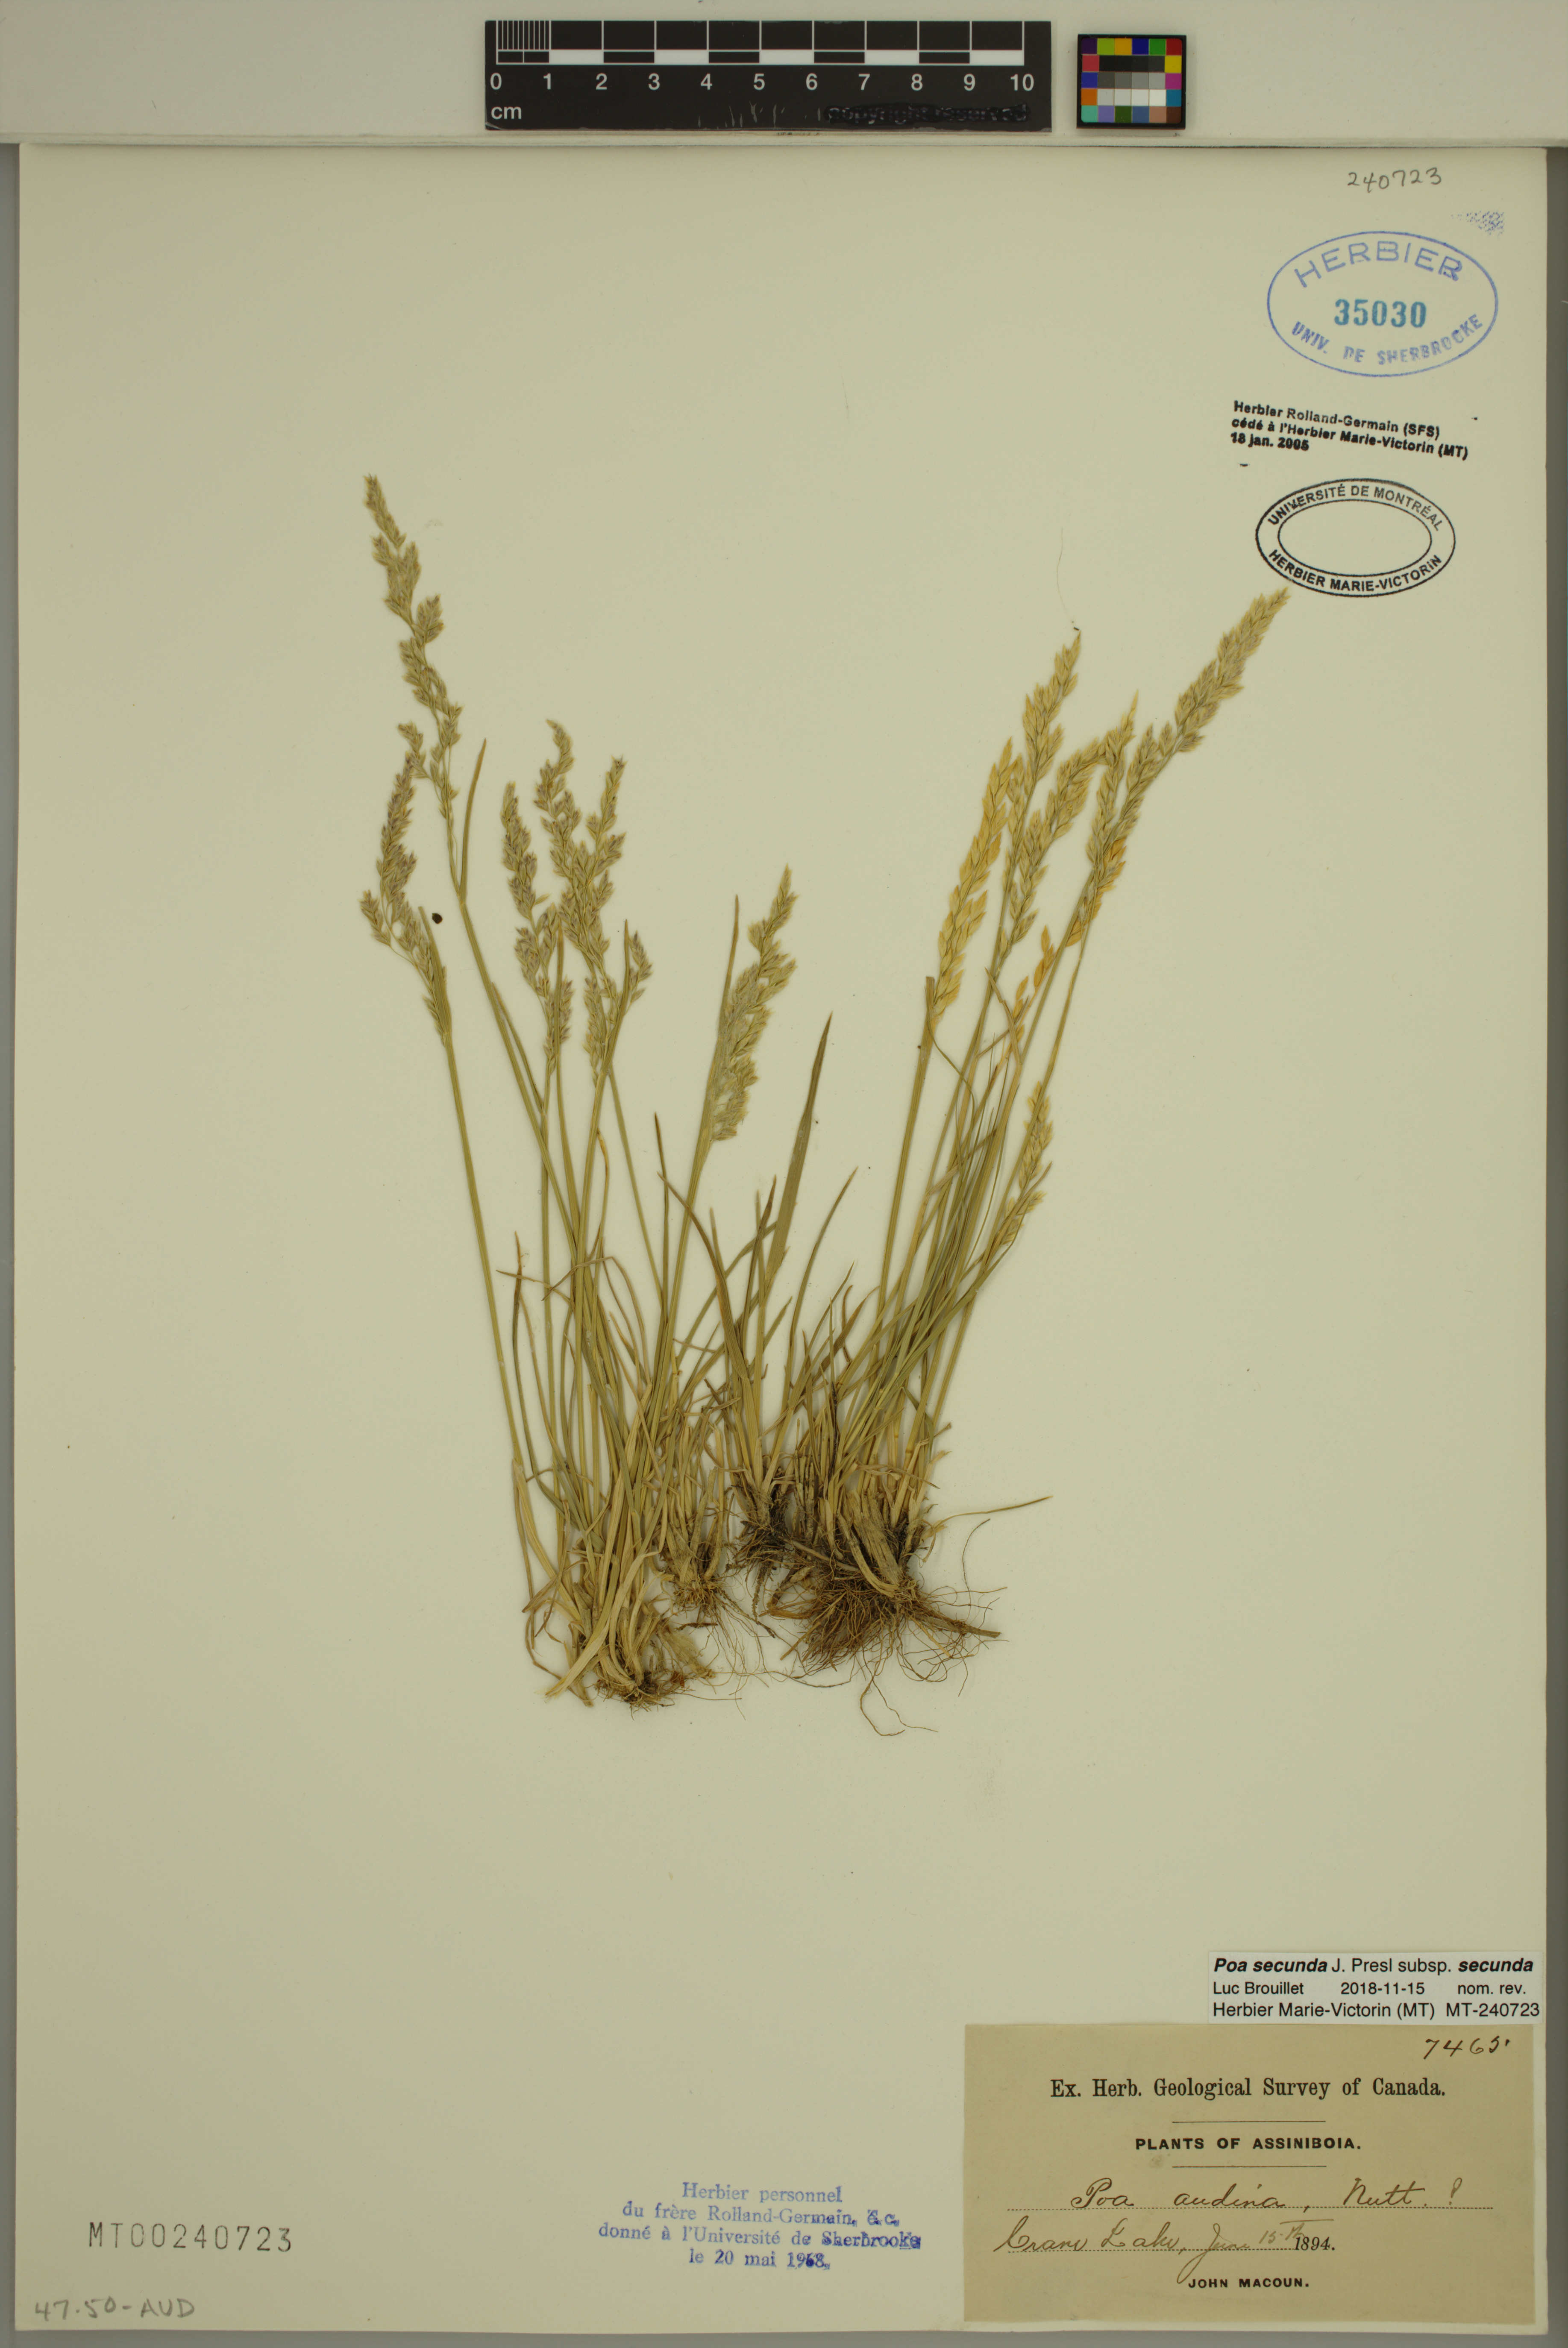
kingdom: Plantae
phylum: Tracheophyta
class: Liliopsida
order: Poales
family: Poaceae
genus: Poa
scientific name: Poa secunda
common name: Sandberg bluegrass
